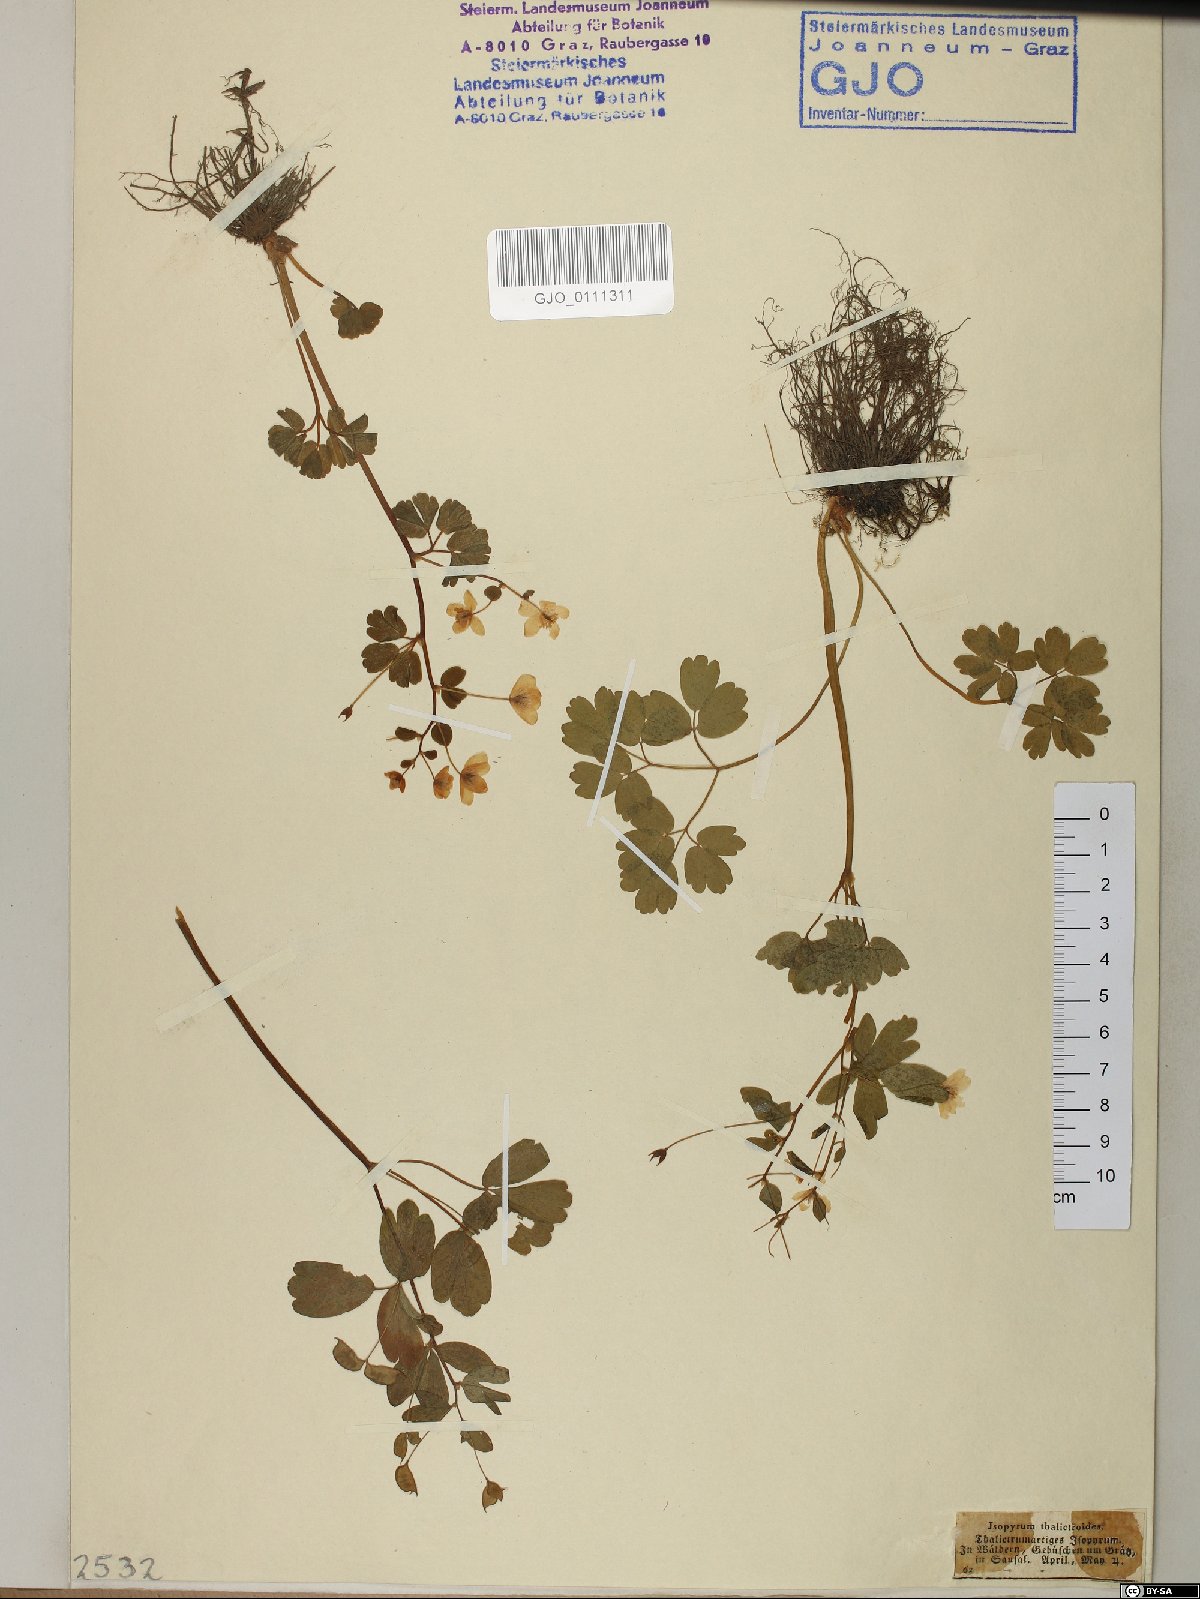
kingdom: Plantae
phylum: Tracheophyta
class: Magnoliopsida
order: Ranunculales
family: Ranunculaceae
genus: Isopyrum
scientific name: Isopyrum thalictroides
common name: Isopyrum
